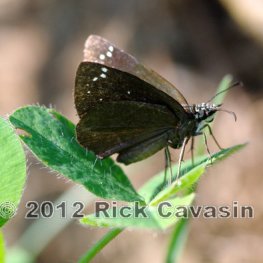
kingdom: Animalia
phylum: Arthropoda
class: Insecta
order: Lepidoptera
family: Hesperiidae
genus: Pholisora
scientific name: Pholisora catullus
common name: Common Sootywing
